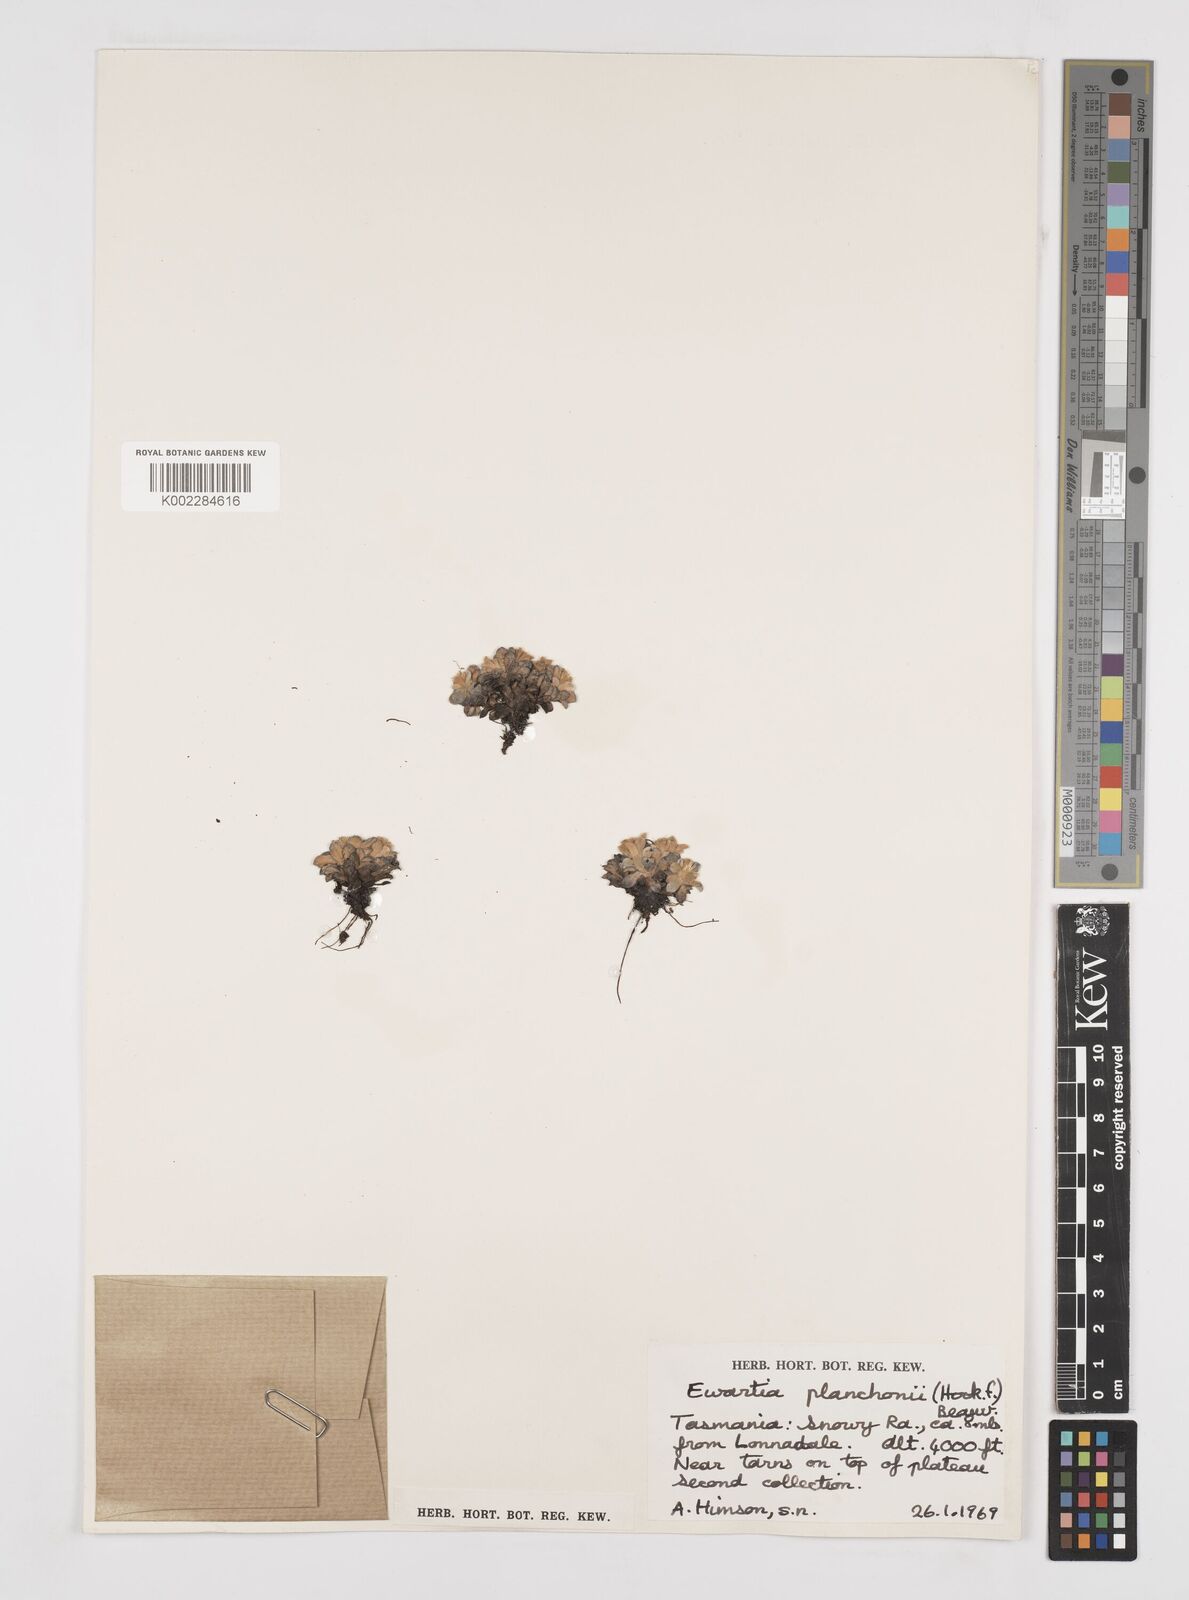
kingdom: Plantae
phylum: Tracheophyta
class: Magnoliopsida
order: Asterales
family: Asteraceae
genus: Ewartia
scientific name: Ewartia planchonii
